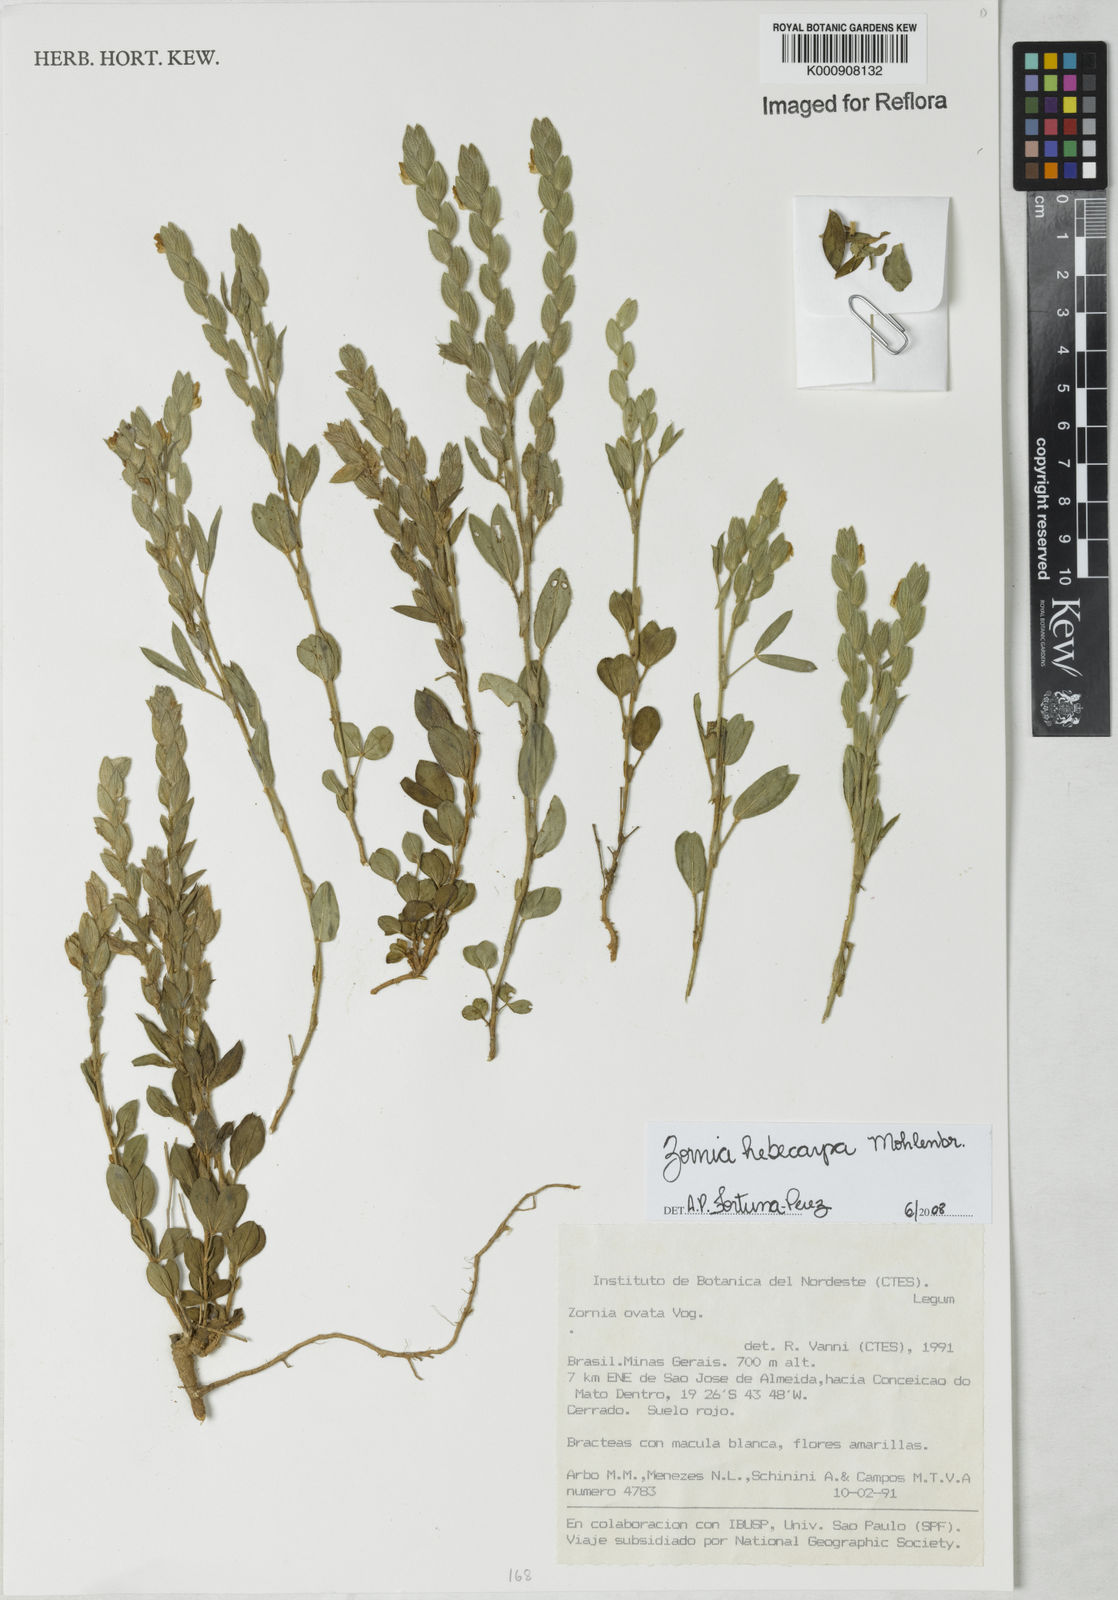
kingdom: Plantae
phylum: Tracheophyta
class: Magnoliopsida
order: Fabales
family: Fabaceae
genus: Zornia
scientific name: Zornia hebecarpa
